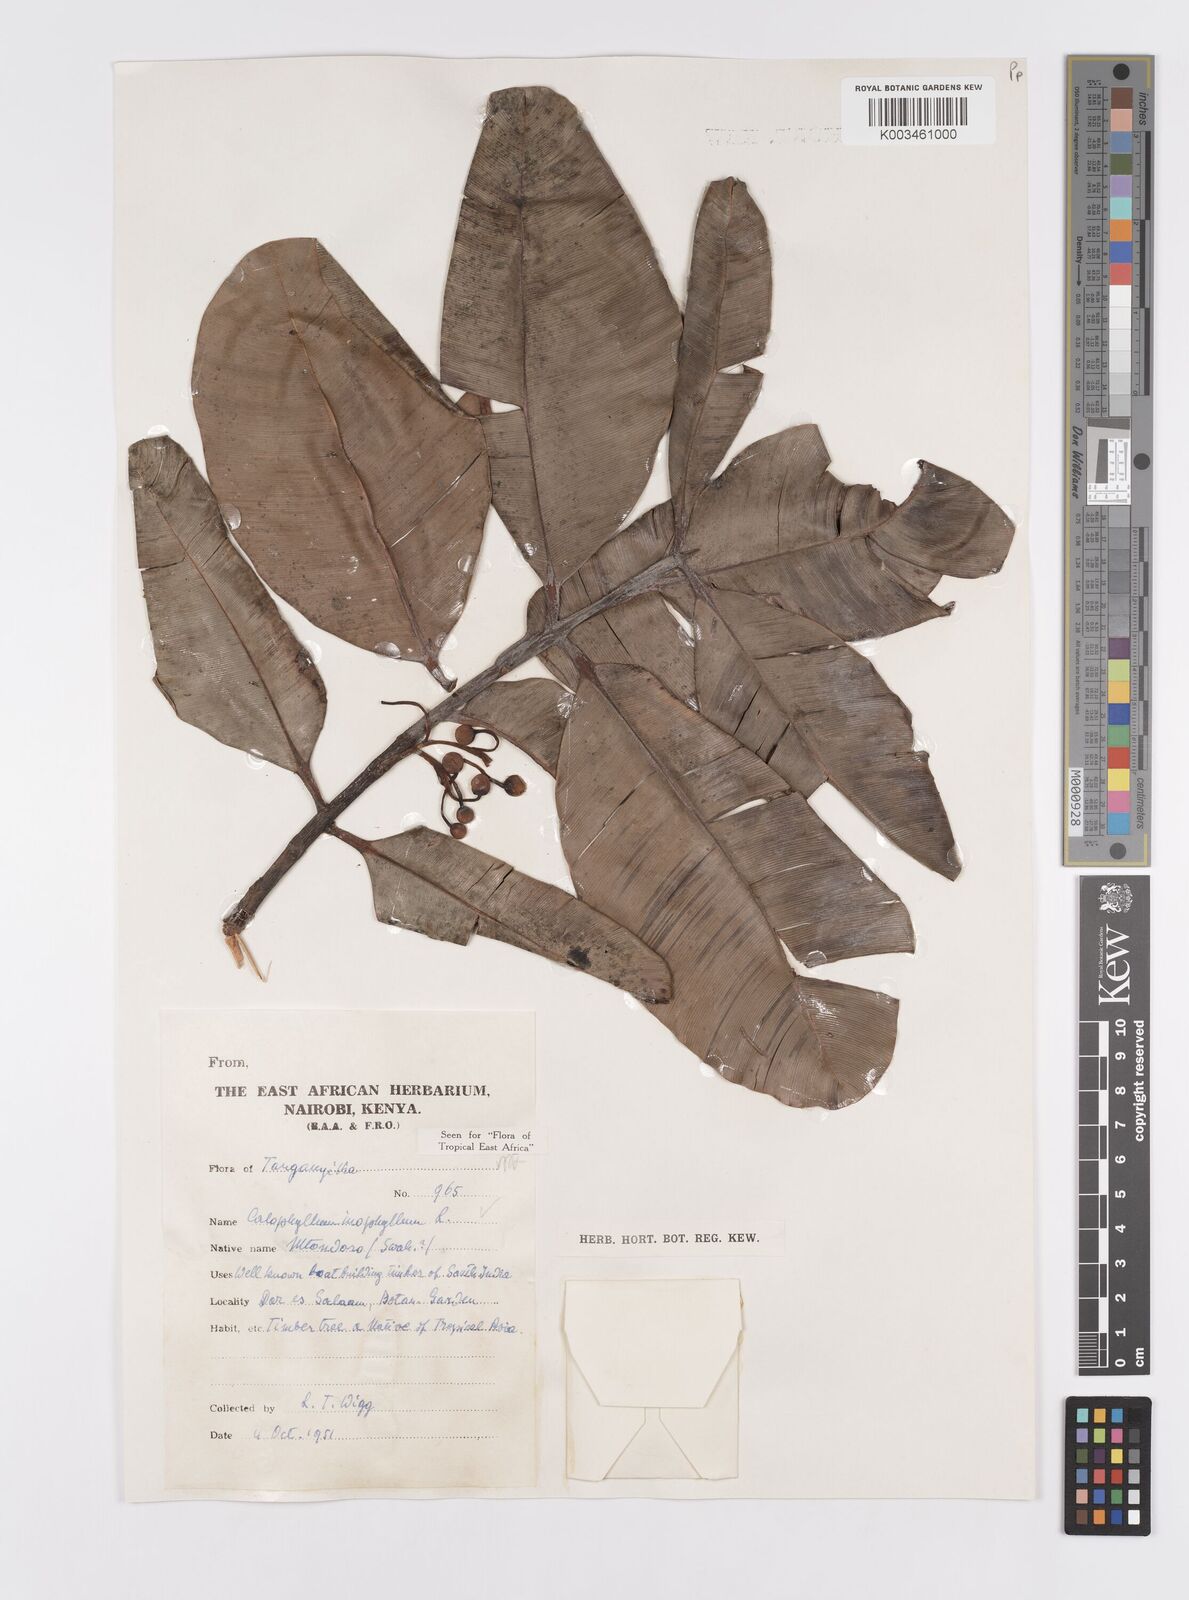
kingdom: Plantae
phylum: Tracheophyta
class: Magnoliopsida
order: Malpighiales
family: Calophyllaceae
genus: Calophyllum
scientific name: Calophyllum inophyllum
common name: Alexandrian laurel
